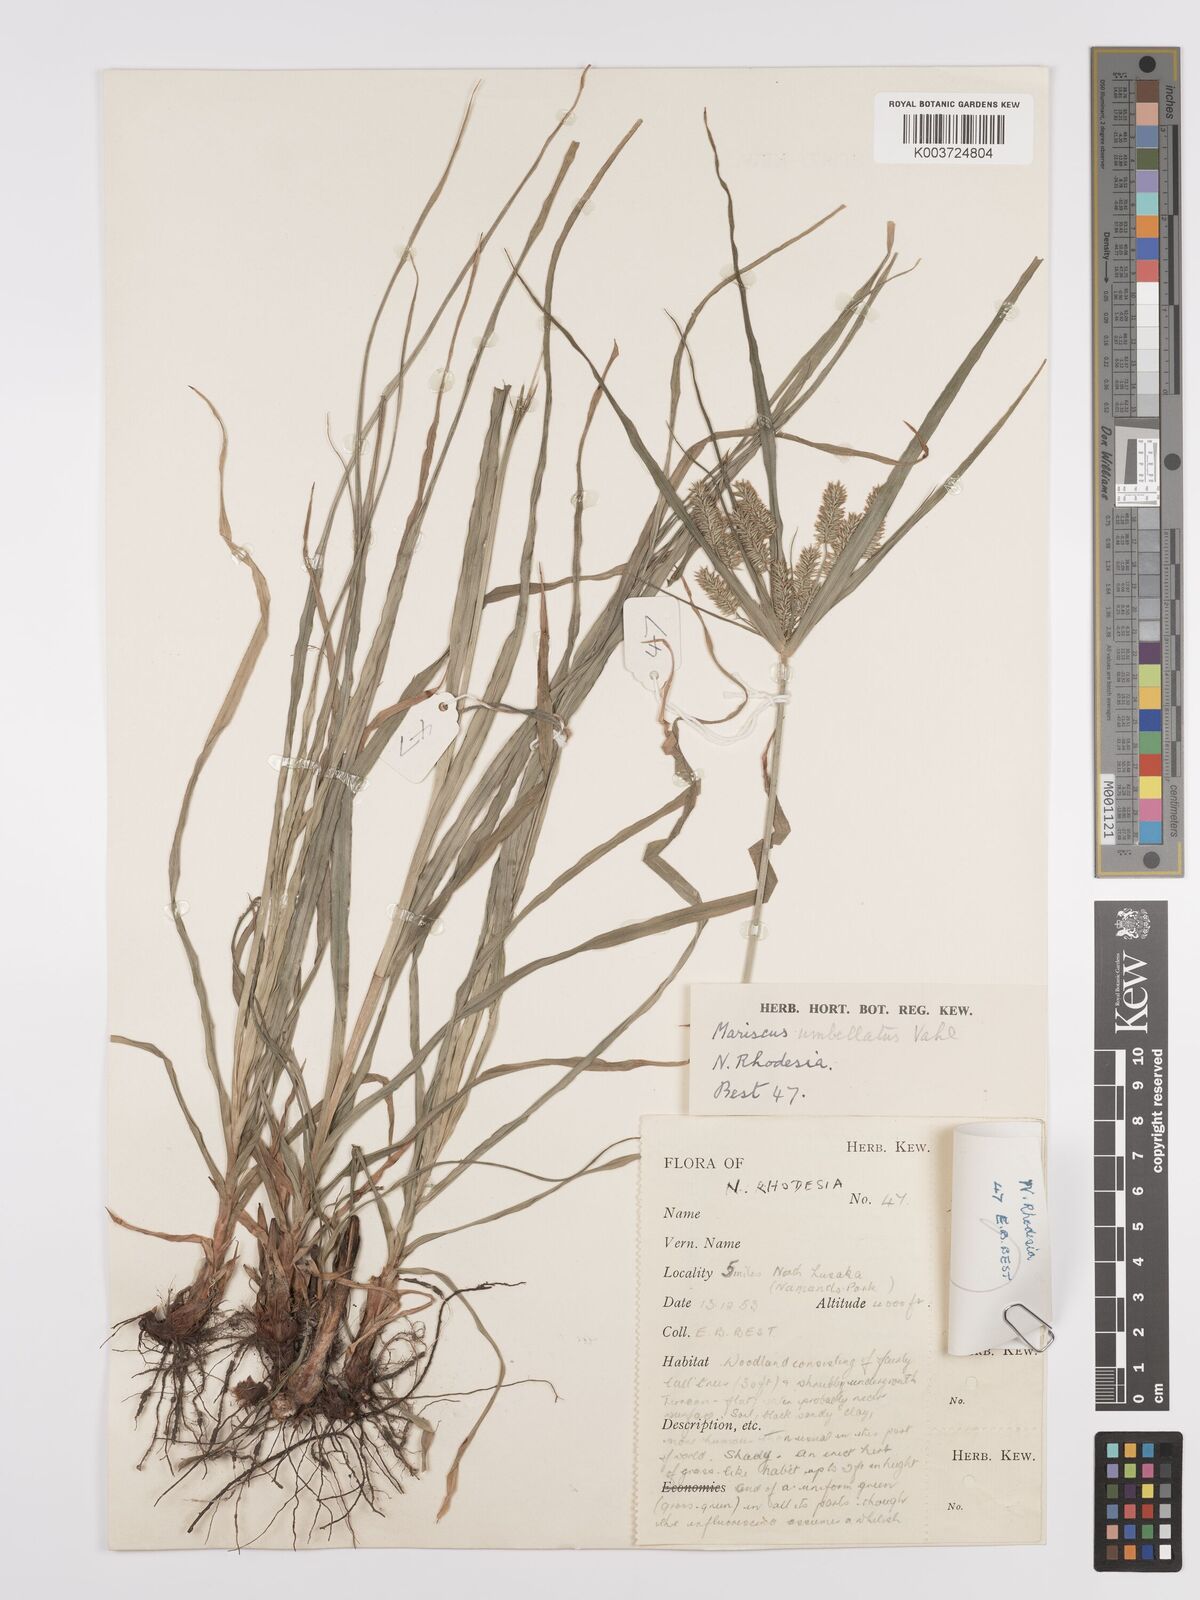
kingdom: Plantae
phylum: Tracheophyta
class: Liliopsida
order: Poales
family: Cyperaceae
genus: Cyperus
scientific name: Cyperus cyperoides
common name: Pacific island flat sedge
